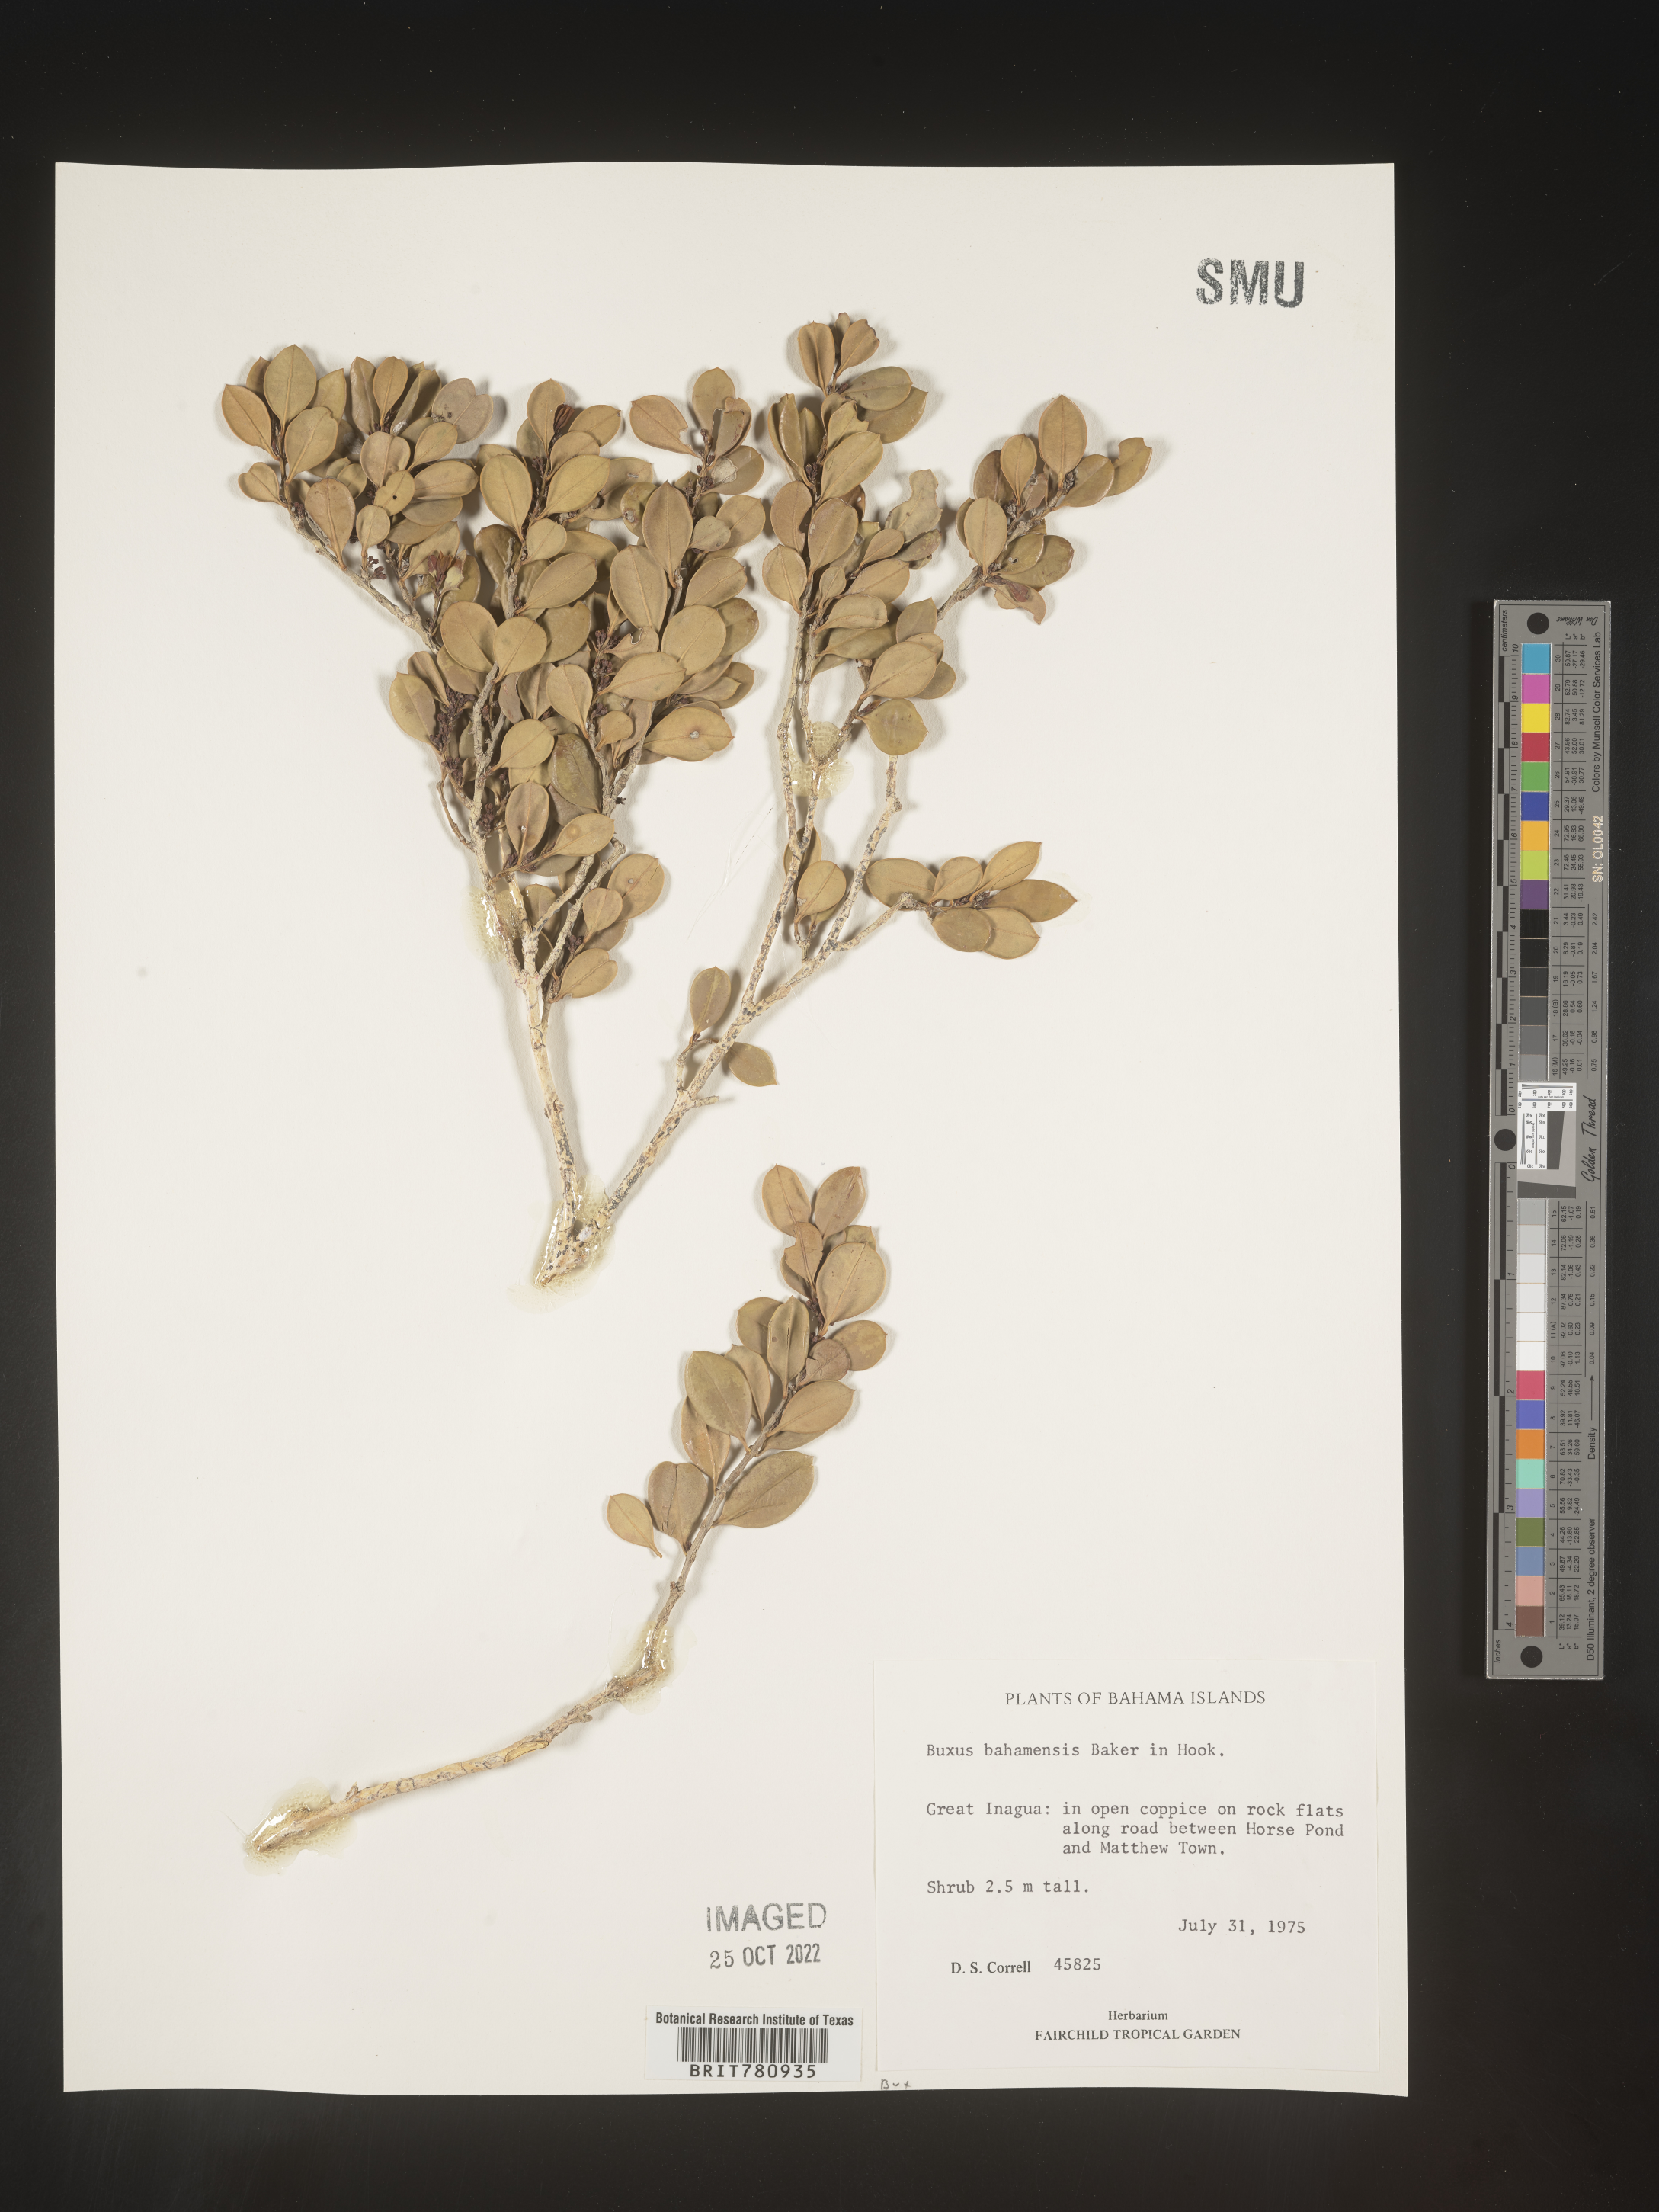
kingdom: Plantae
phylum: Tracheophyta
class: Magnoliopsida
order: Buxales
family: Buxaceae
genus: Buxus
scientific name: Buxus
